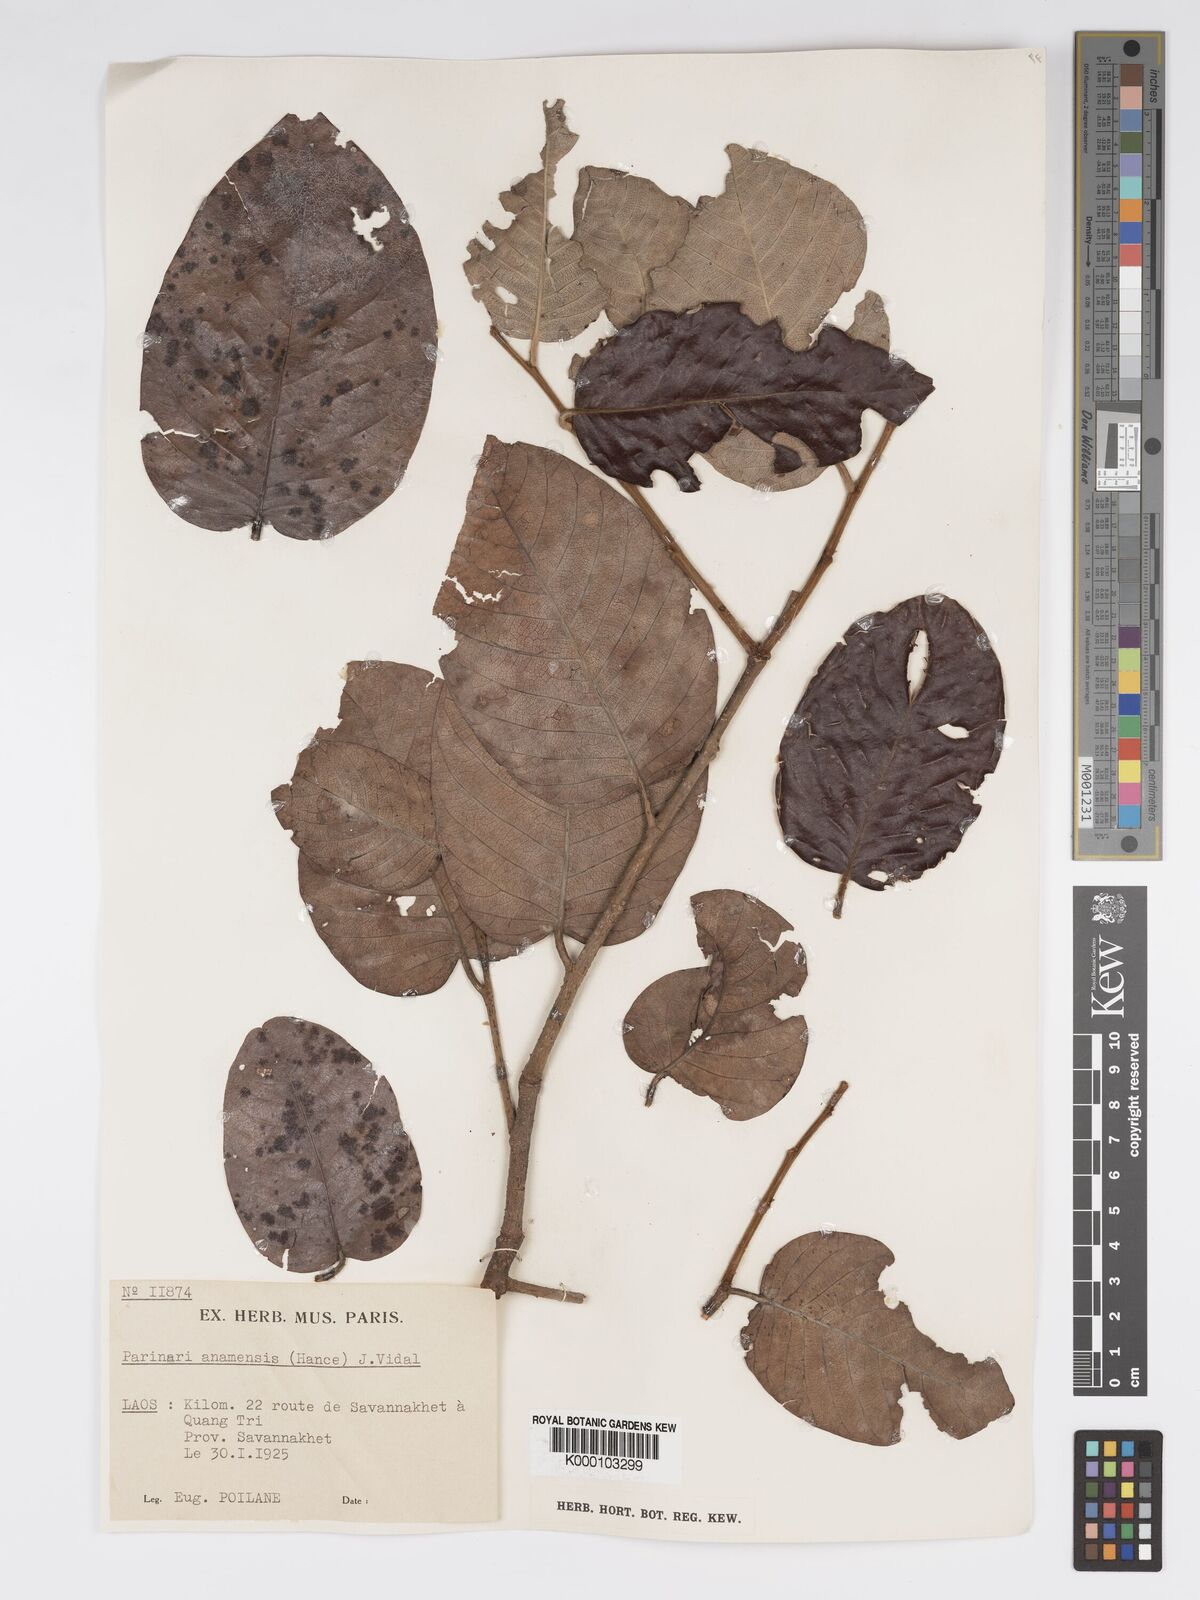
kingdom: Plantae
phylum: Tracheophyta
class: Magnoliopsida
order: Malpighiales
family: Chrysobalanaceae
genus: Parinari
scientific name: Parinari anamensis
